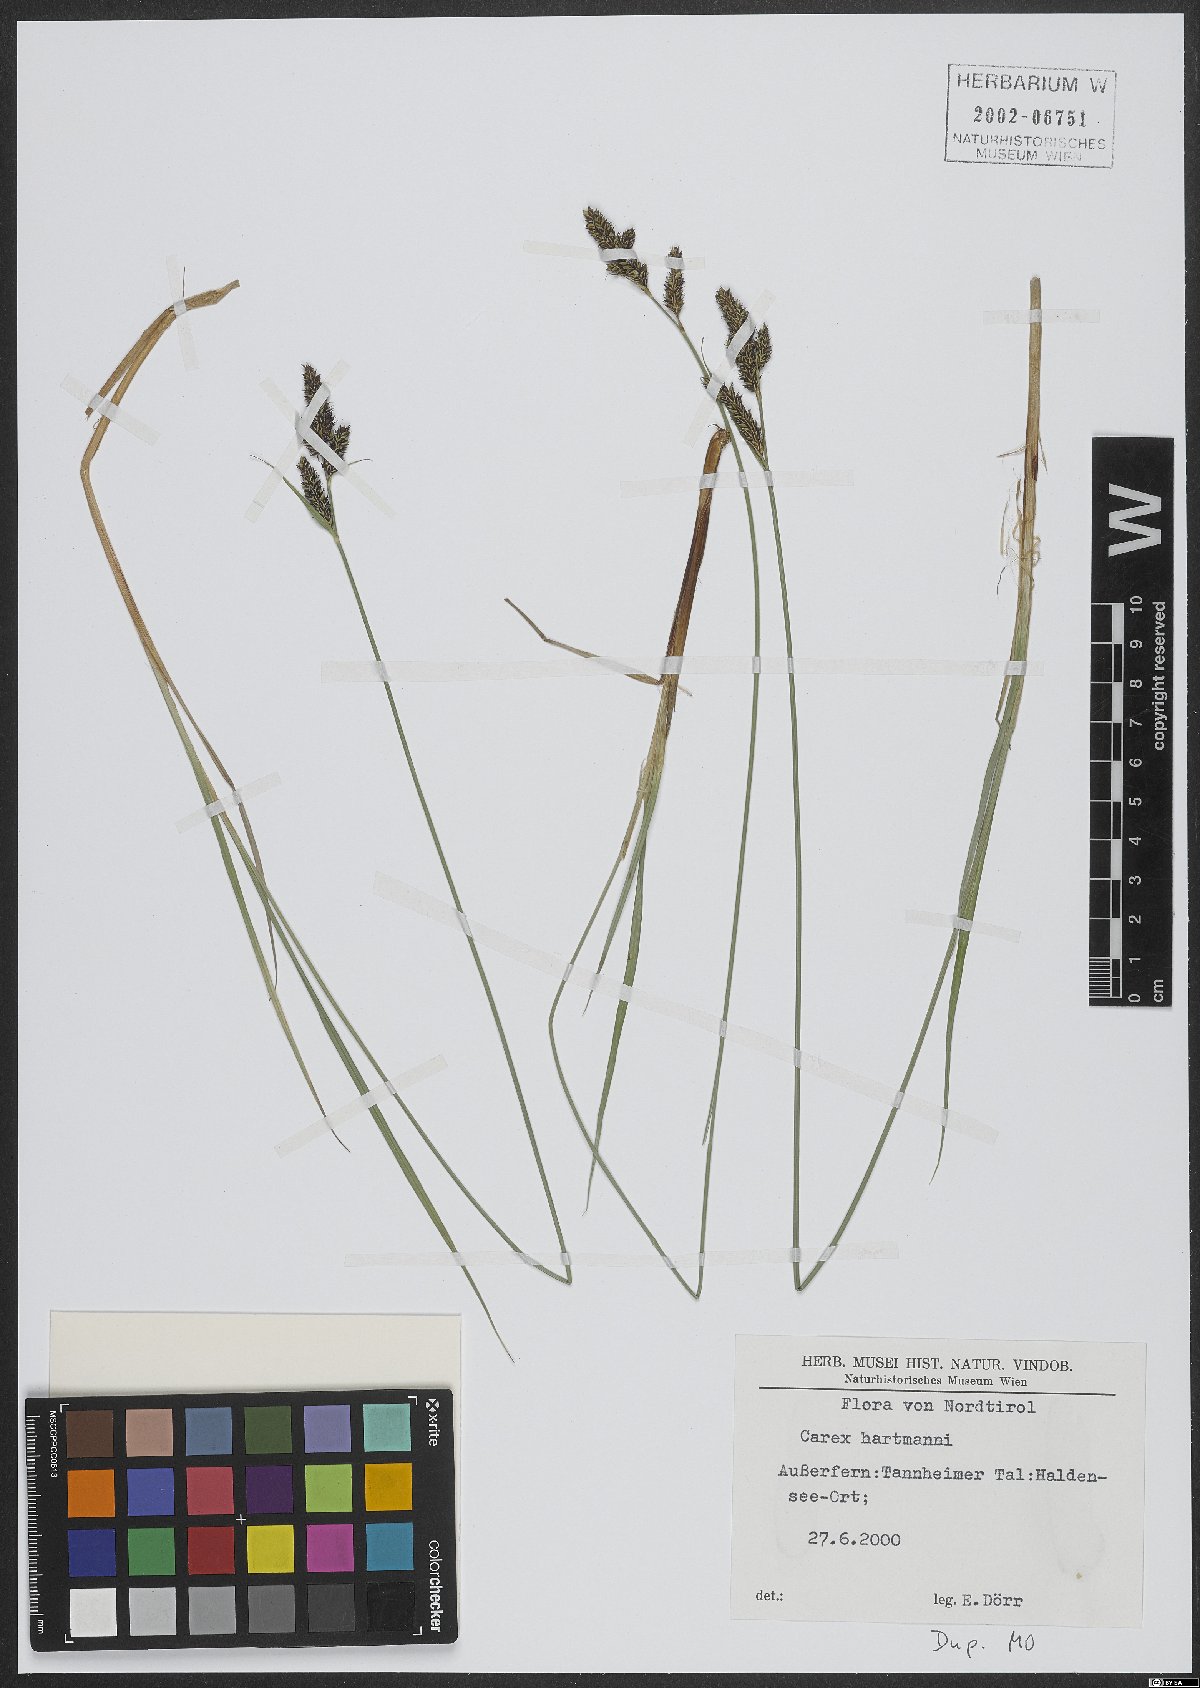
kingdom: Plantae
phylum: Tracheophyta
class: Liliopsida
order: Poales
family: Cyperaceae
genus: Carex
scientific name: Carex hartmaniorum
